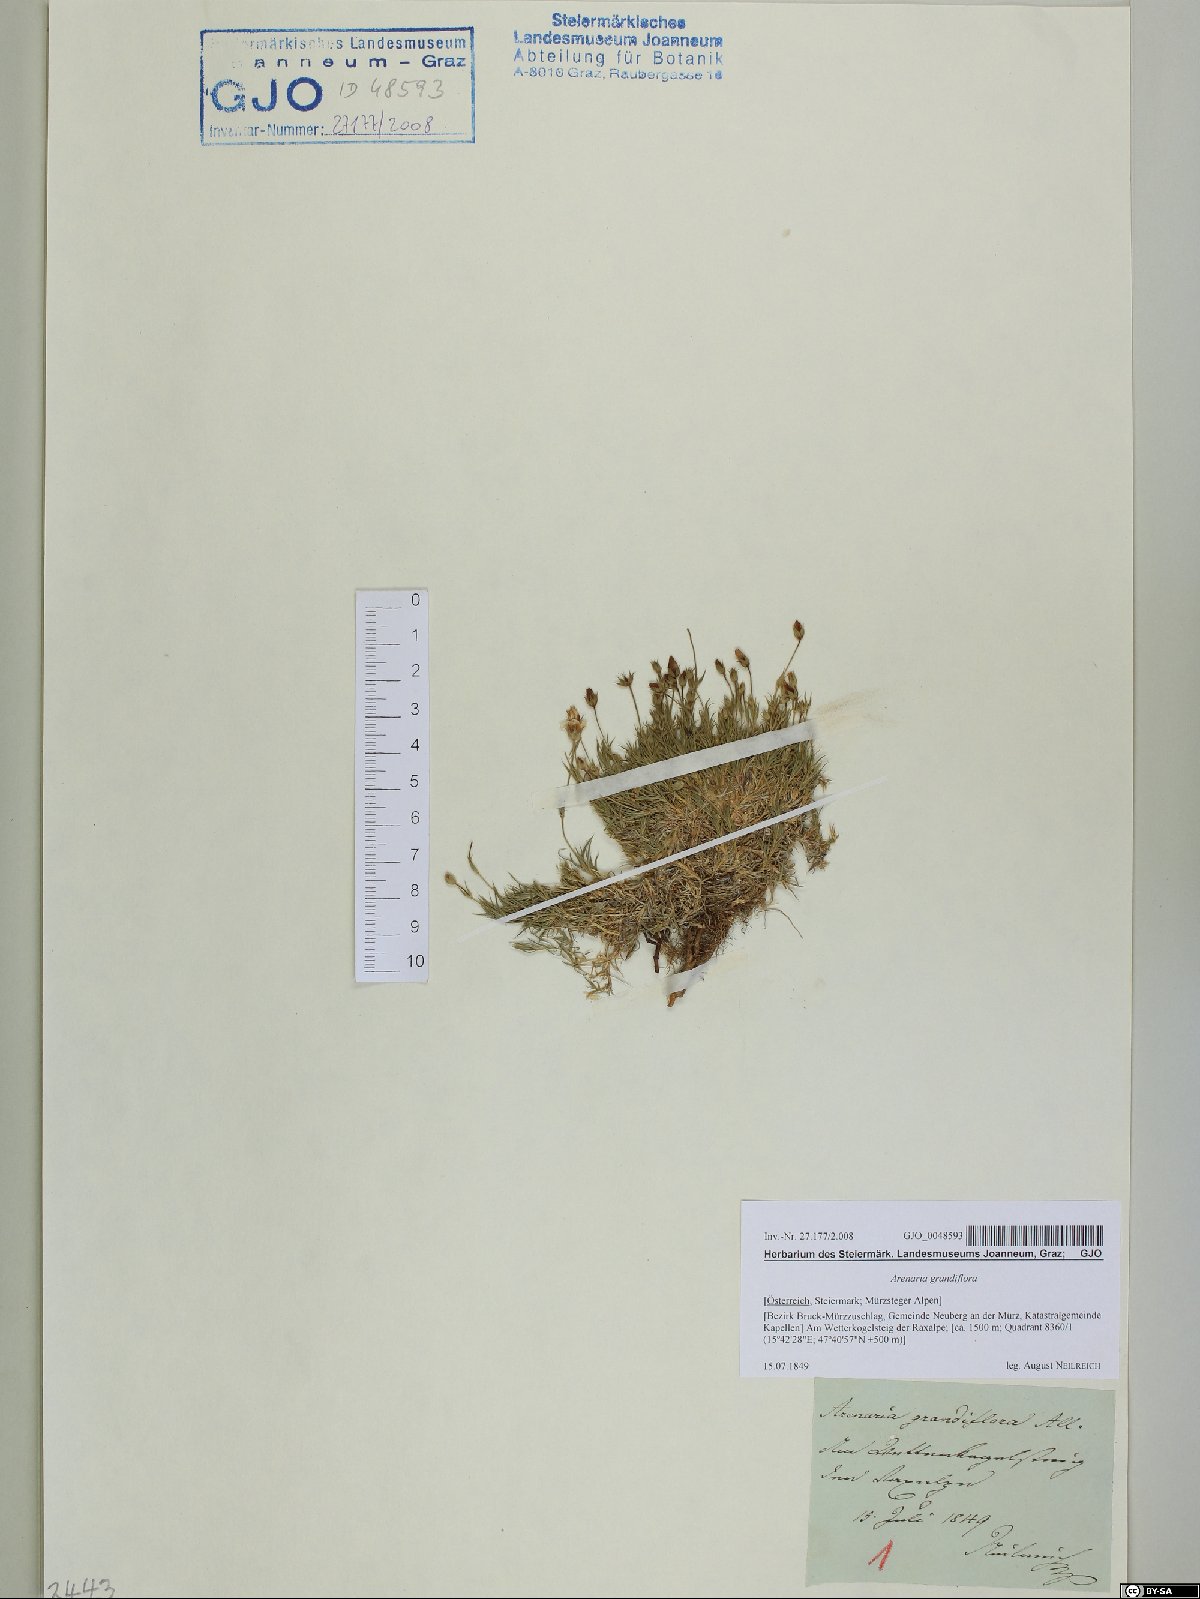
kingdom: Plantae
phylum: Tracheophyta
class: Magnoliopsida
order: Caryophyllales
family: Caryophyllaceae
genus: Arenaria
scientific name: Arenaria grandiflora
